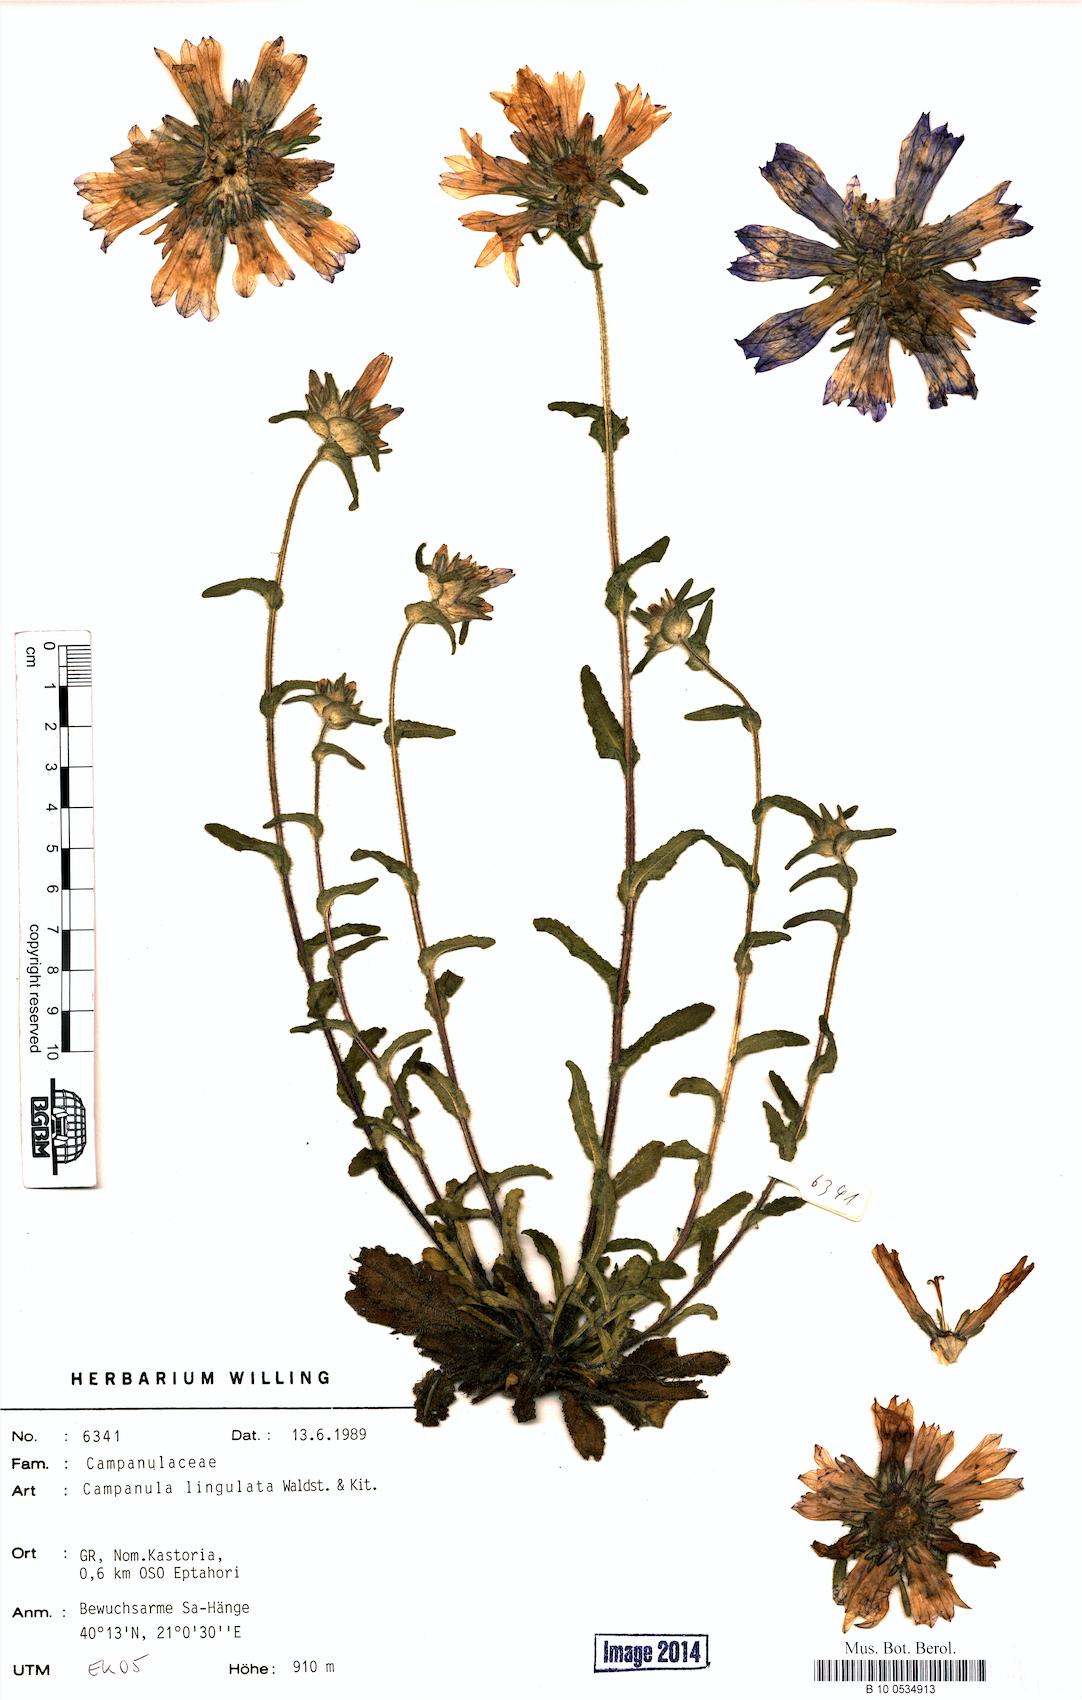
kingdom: Plantae
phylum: Tracheophyta
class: Magnoliopsida
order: Asterales
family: Campanulaceae
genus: Campanula
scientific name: Campanula lingulata
